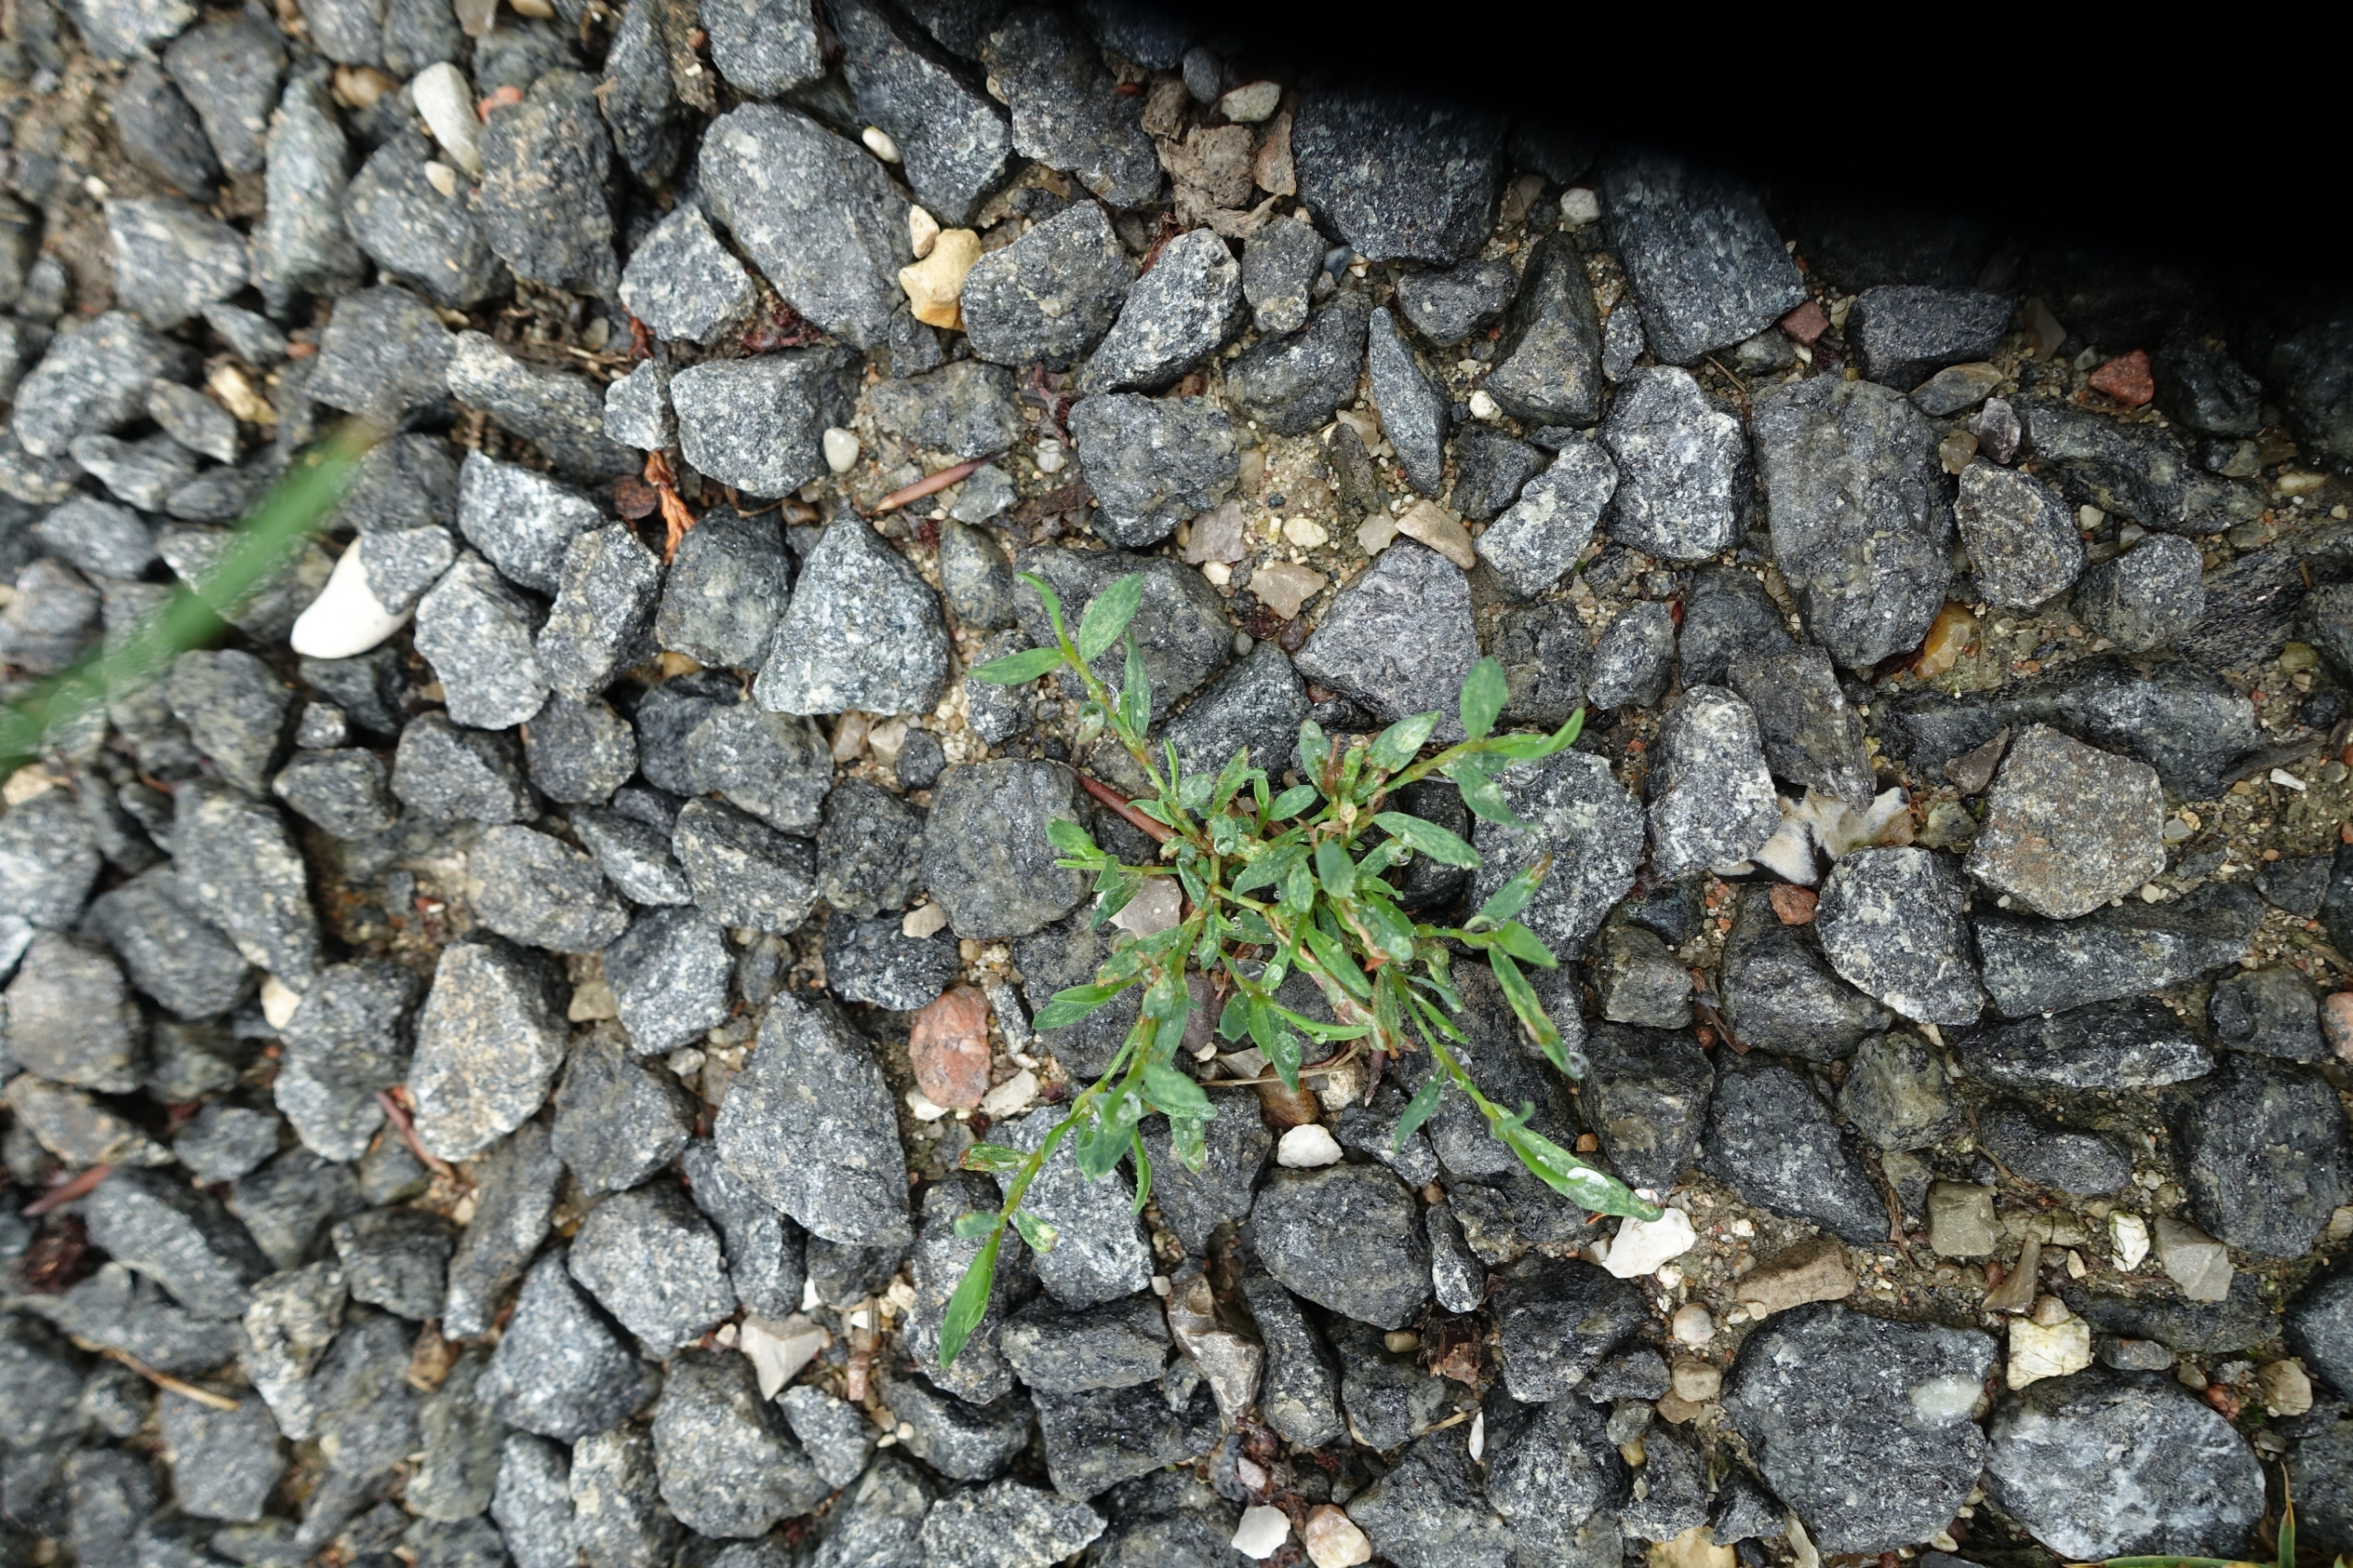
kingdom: Plantae
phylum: Tracheophyta
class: Magnoliopsida
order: Caryophyllales
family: Polygonaceae
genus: Polygonum
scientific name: Polygonum arenastrum
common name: Liggende vej-pileurt
